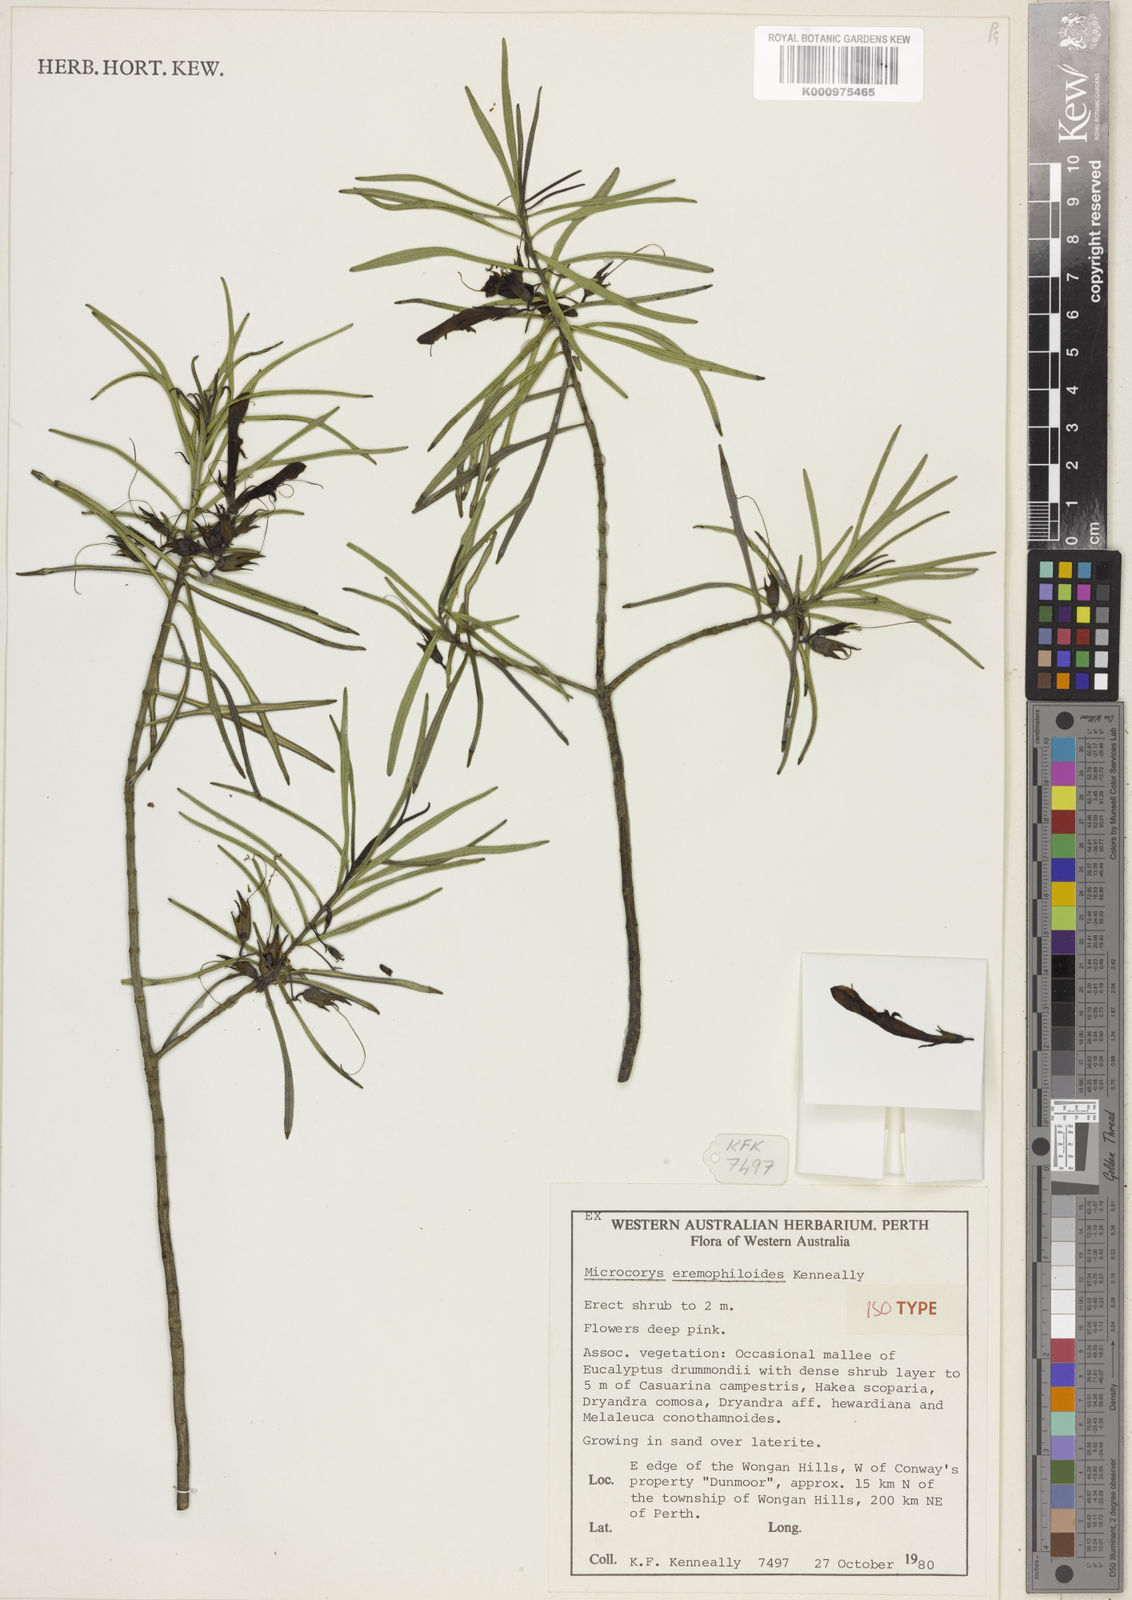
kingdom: Plantae
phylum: Tracheophyta
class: Magnoliopsida
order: Lamiales
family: Lamiaceae
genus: Microcorys
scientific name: Microcorys eremophiloides
